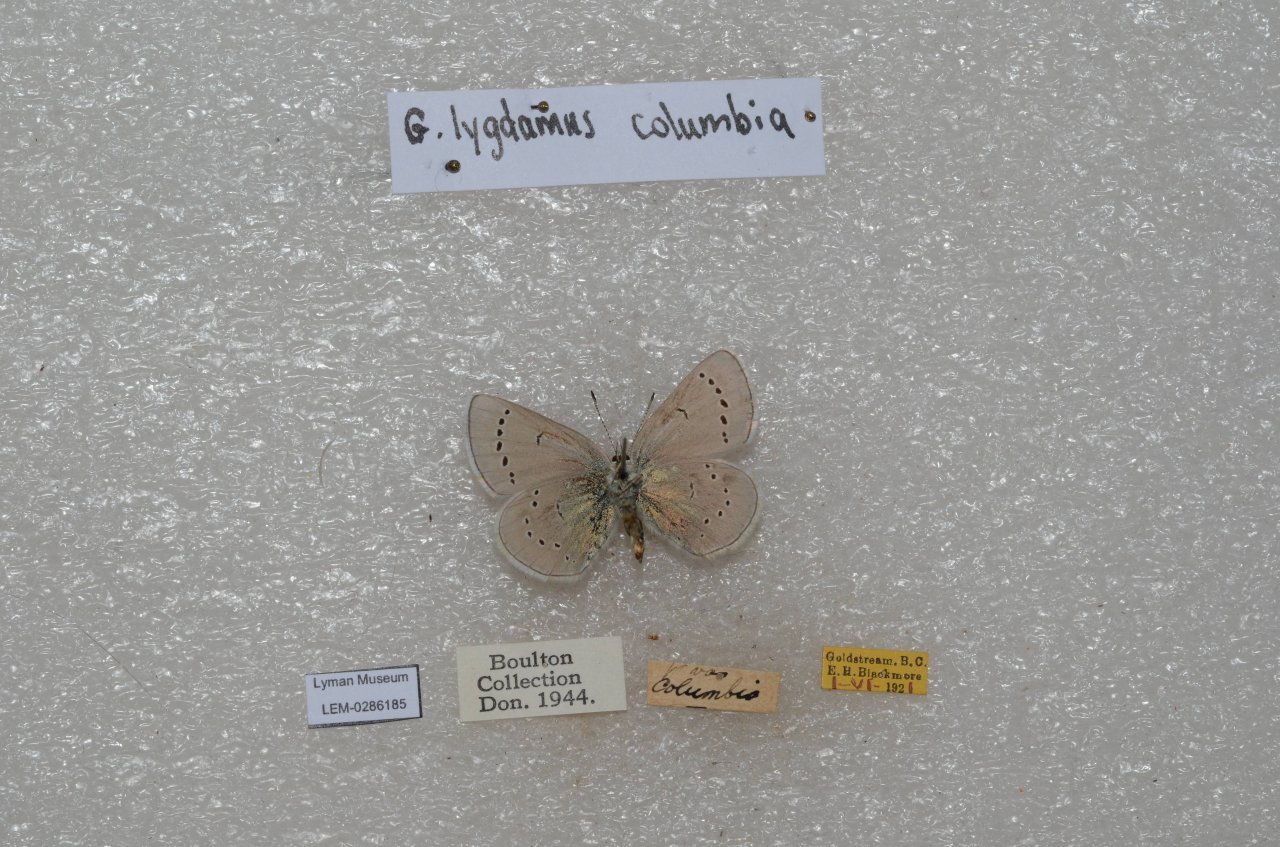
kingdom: Animalia
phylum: Arthropoda
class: Insecta
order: Lepidoptera
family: Lycaenidae
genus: Glaucopsyche
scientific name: Glaucopsyche lygdamus
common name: Silvery Blue
